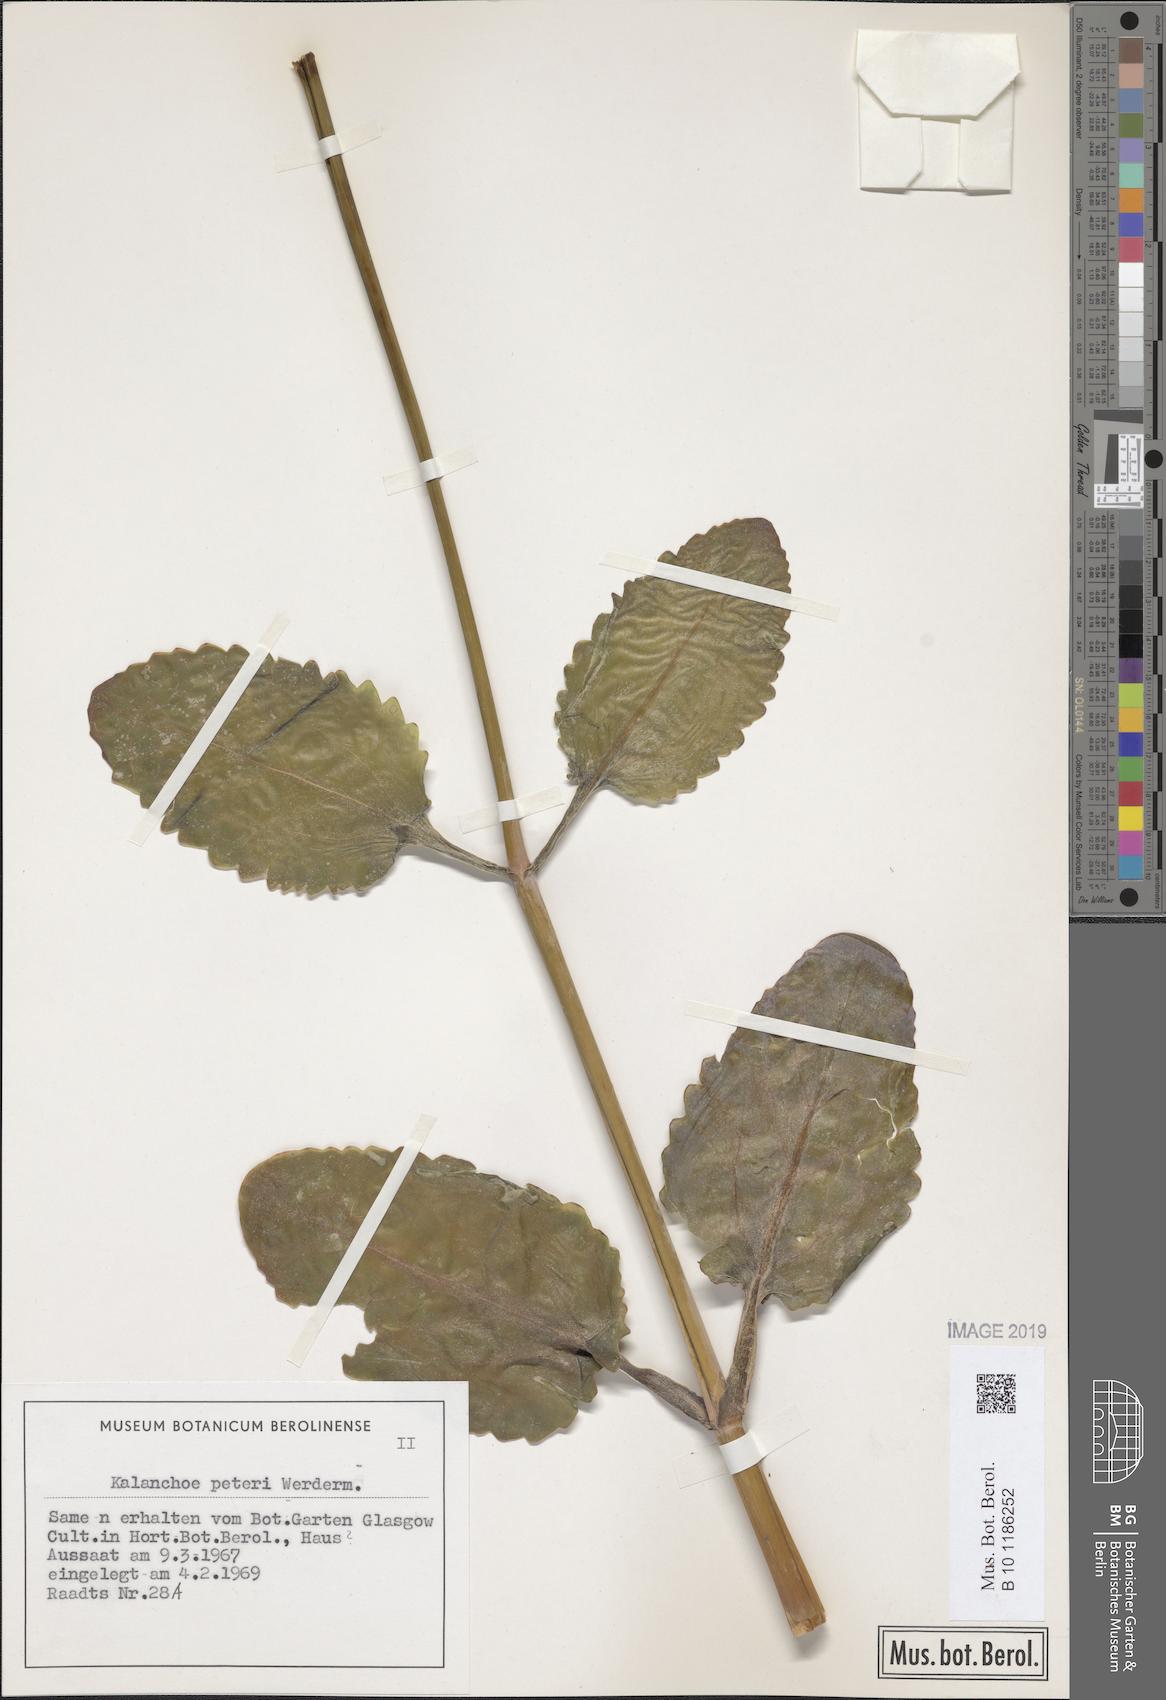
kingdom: Plantae
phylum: Tracheophyta
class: Magnoliopsida
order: Saxifragales
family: Crassulaceae
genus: Kalanchoe
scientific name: Kalanchoe peteri
